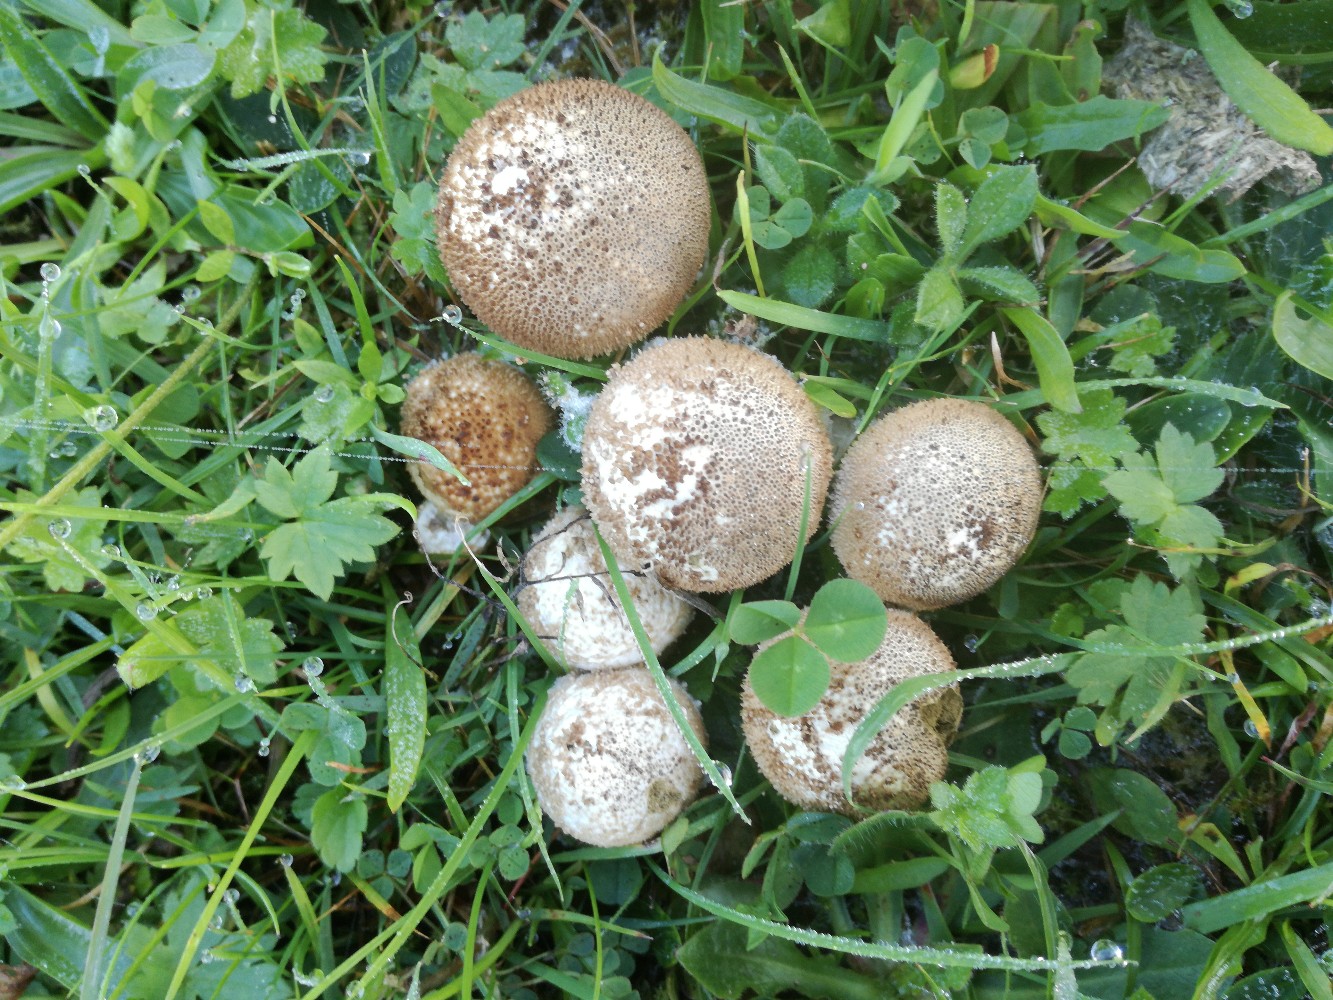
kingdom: Fungi
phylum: Basidiomycota
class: Agaricomycetes
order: Agaricales
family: Lycoperdaceae
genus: Lycoperdon
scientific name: Lycoperdon nigrescens
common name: sortagtig støvbold
